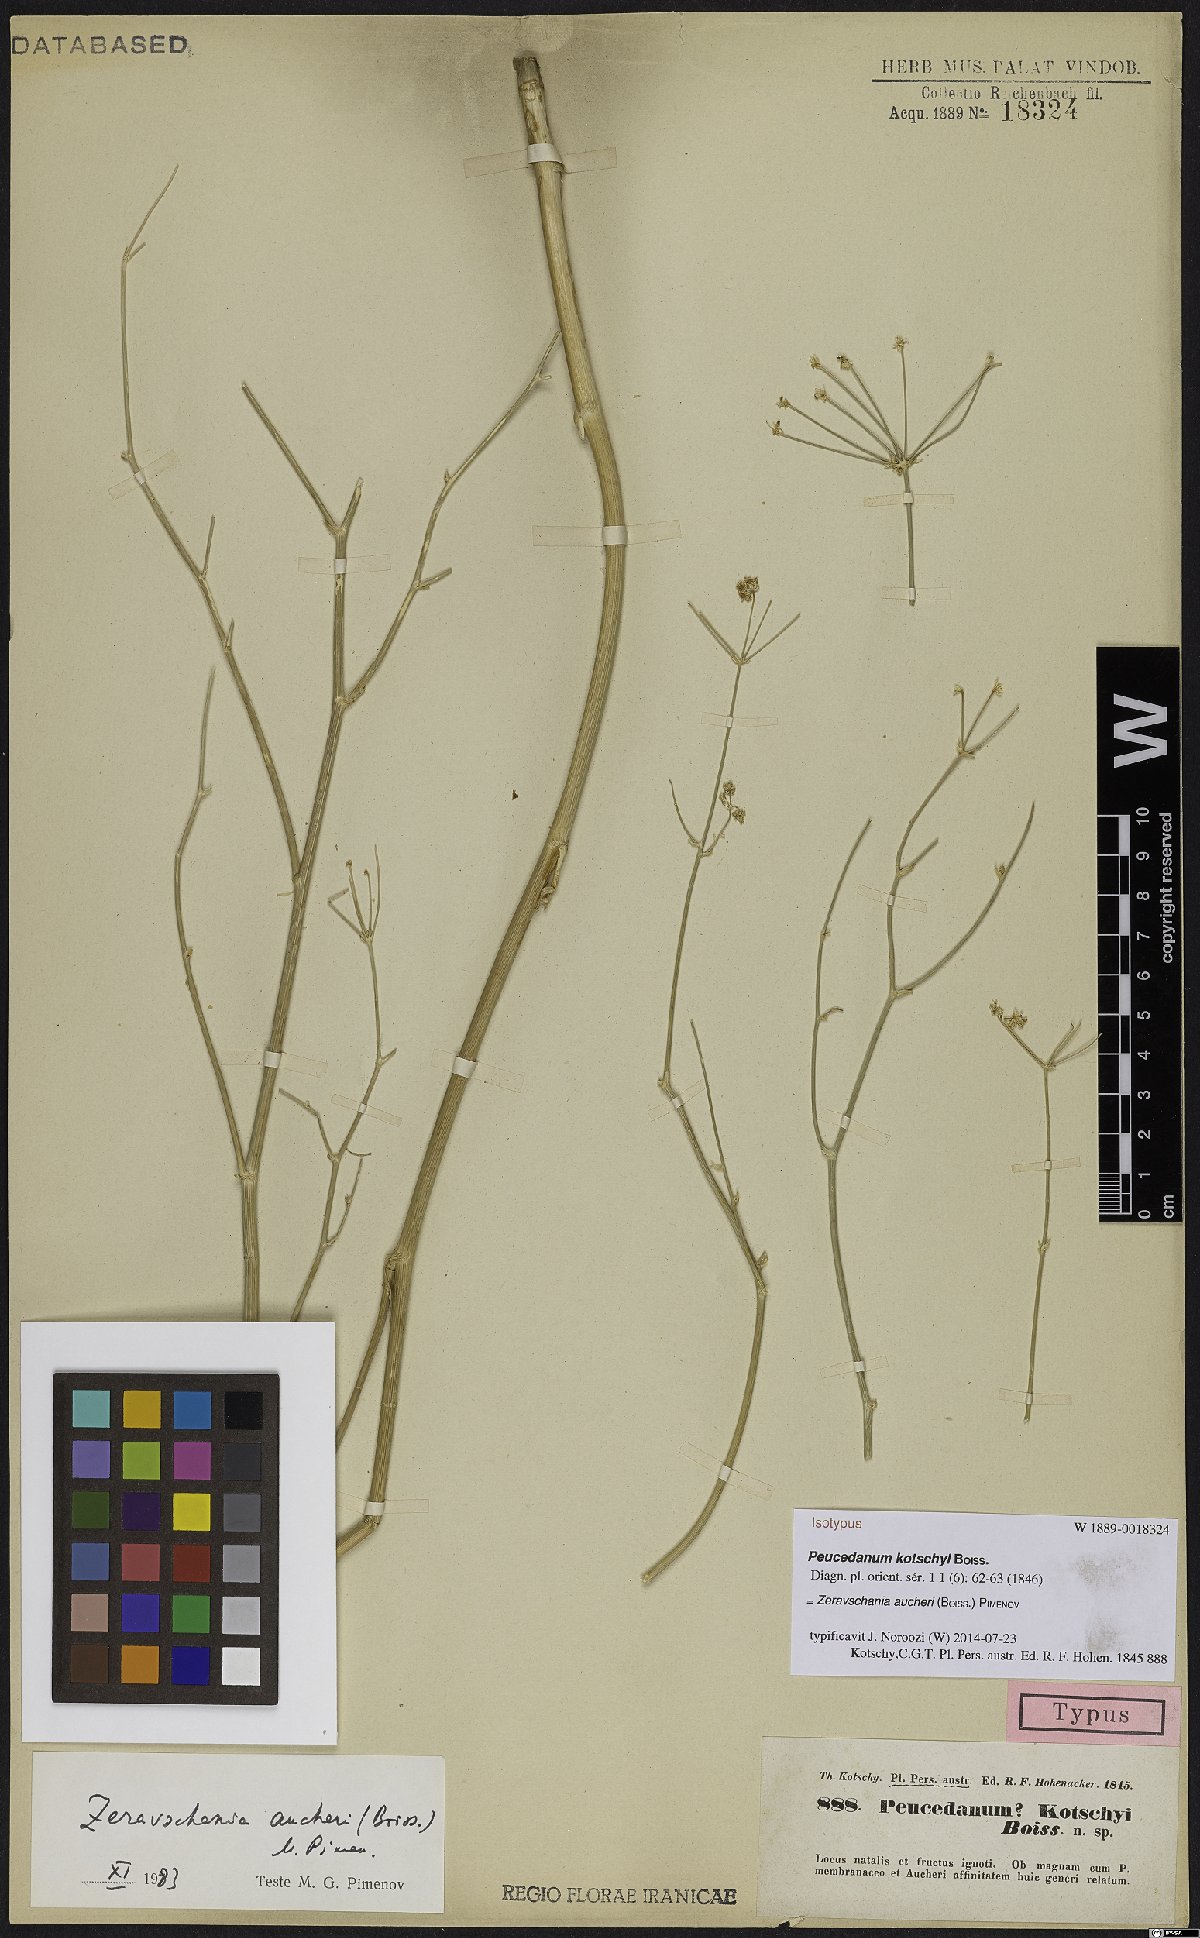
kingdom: Plantae
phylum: Tracheophyta
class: Magnoliopsida
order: Apiales
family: Apiaceae
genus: Zeravschania
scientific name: Zeravschania aucheri
